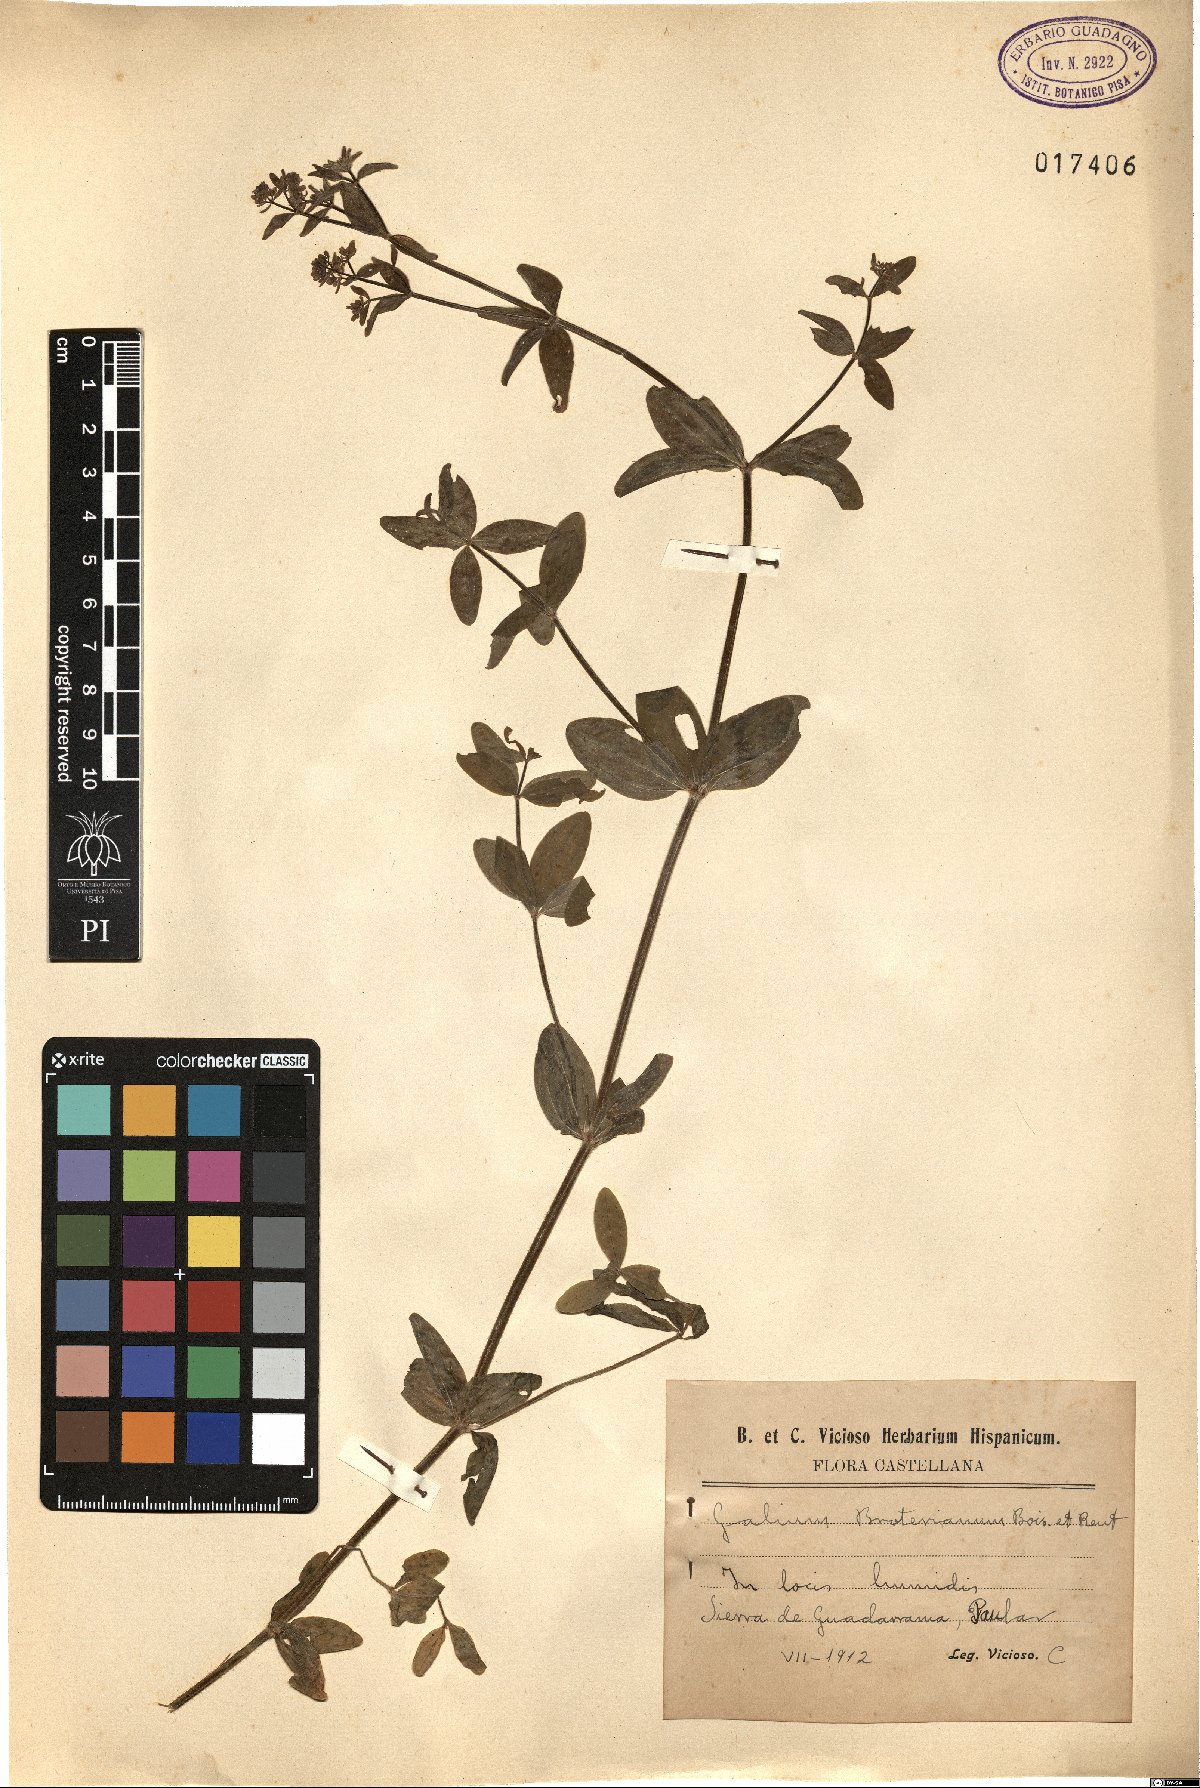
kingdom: Plantae
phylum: Tracheophyta
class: Magnoliopsida
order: Gentianales
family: Rubiaceae
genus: Galium
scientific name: Galium broterianum
